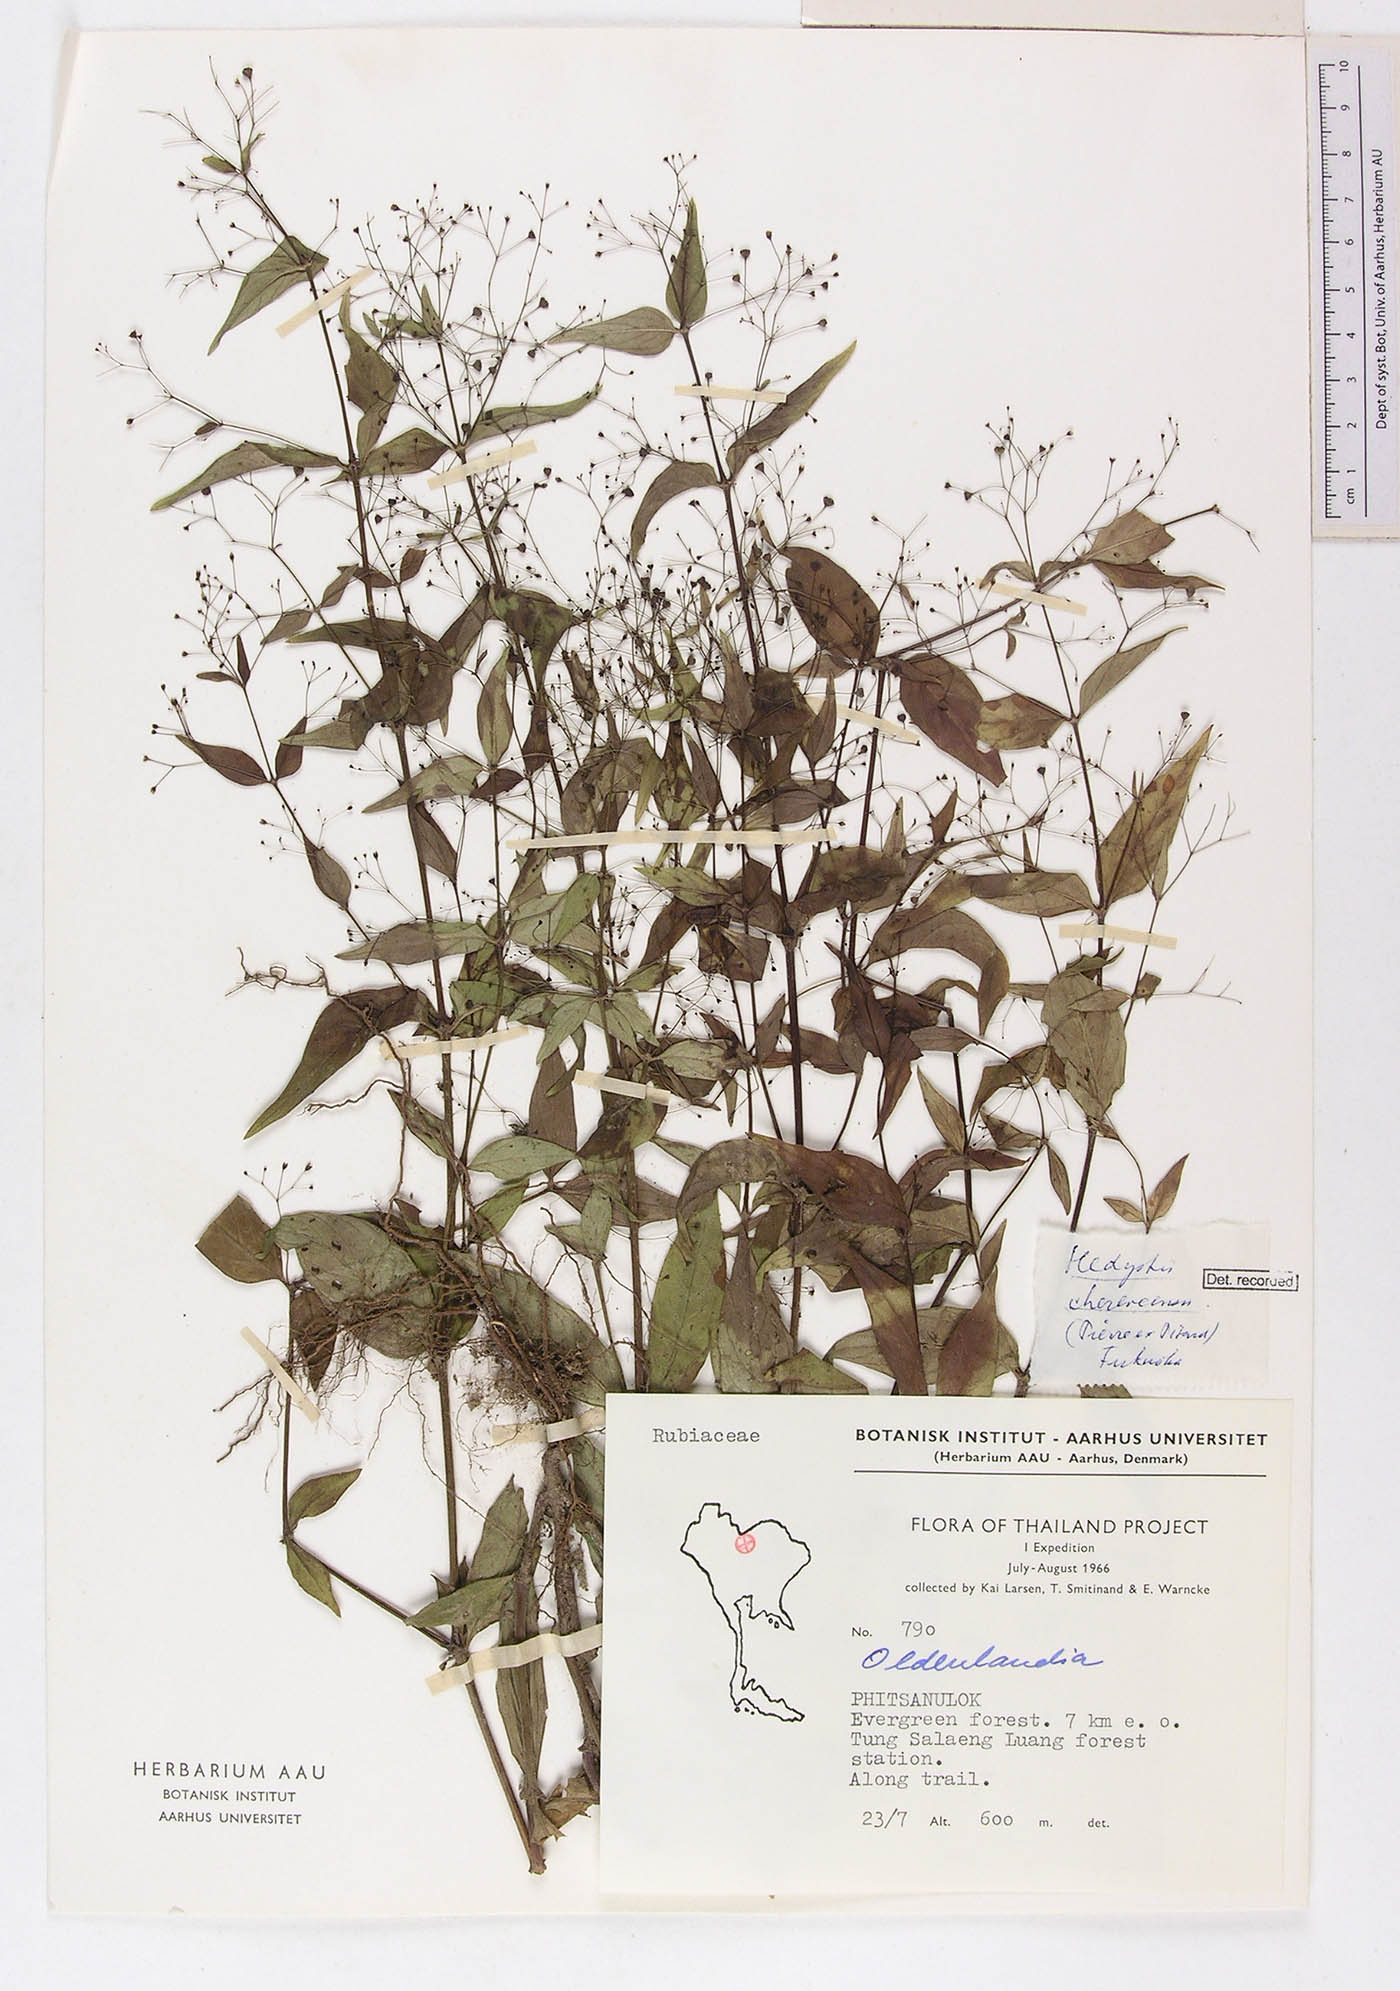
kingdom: Plantae
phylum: Tracheophyta
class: Magnoliopsida
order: Gentianales
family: Rubiaceae
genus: Involucrella
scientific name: Involucrella chereevensis
